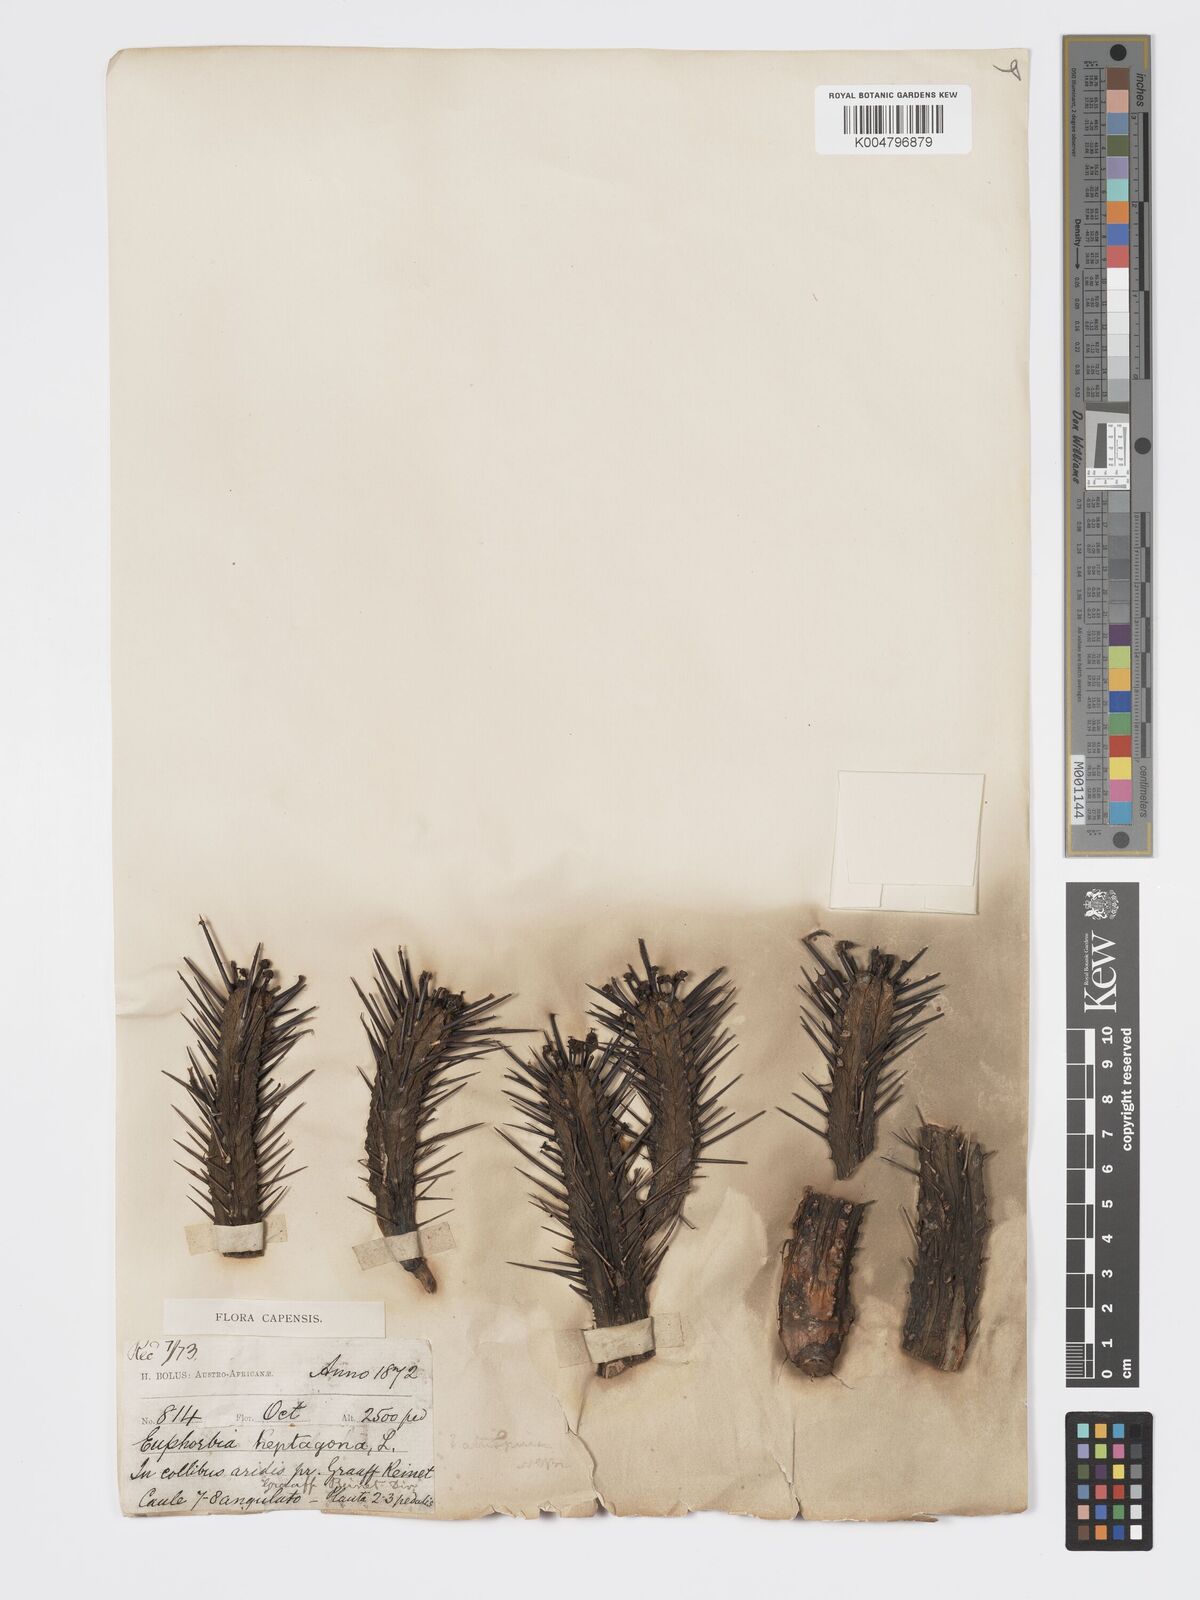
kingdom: Plantae
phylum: Tracheophyta
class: Magnoliopsida
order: Malpighiales
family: Euphorbiaceae
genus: Euphorbia
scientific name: Euphorbia heptagona
